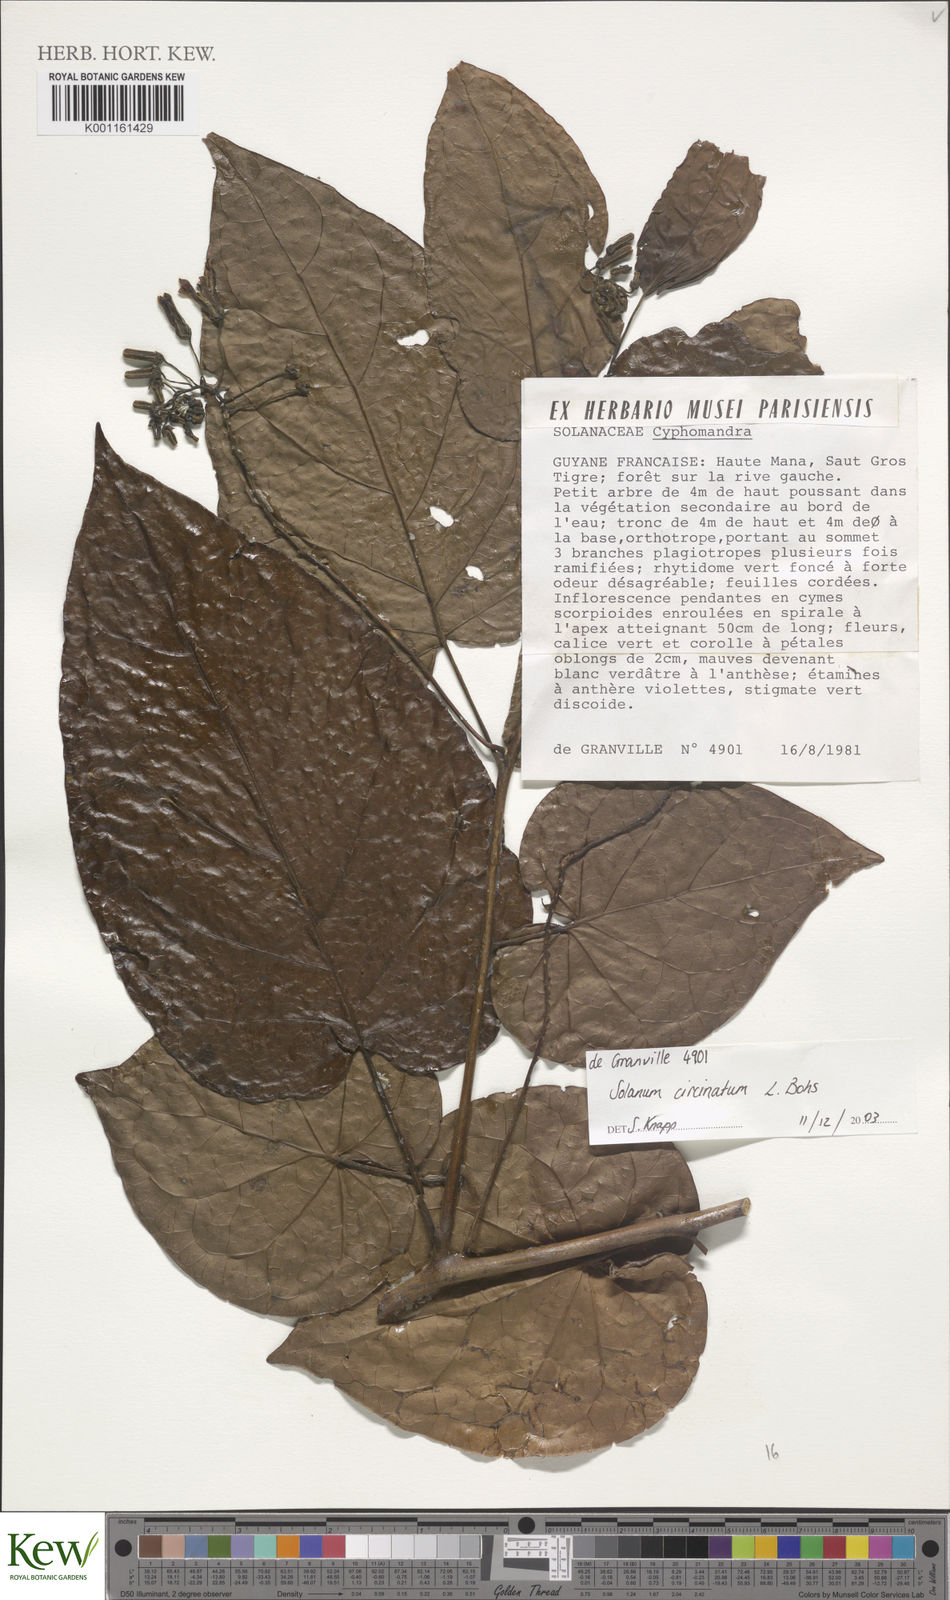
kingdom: Plantae
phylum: Tracheophyta
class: Magnoliopsida
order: Solanales
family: Solanaceae
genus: Solanum
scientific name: Solanum splendens
